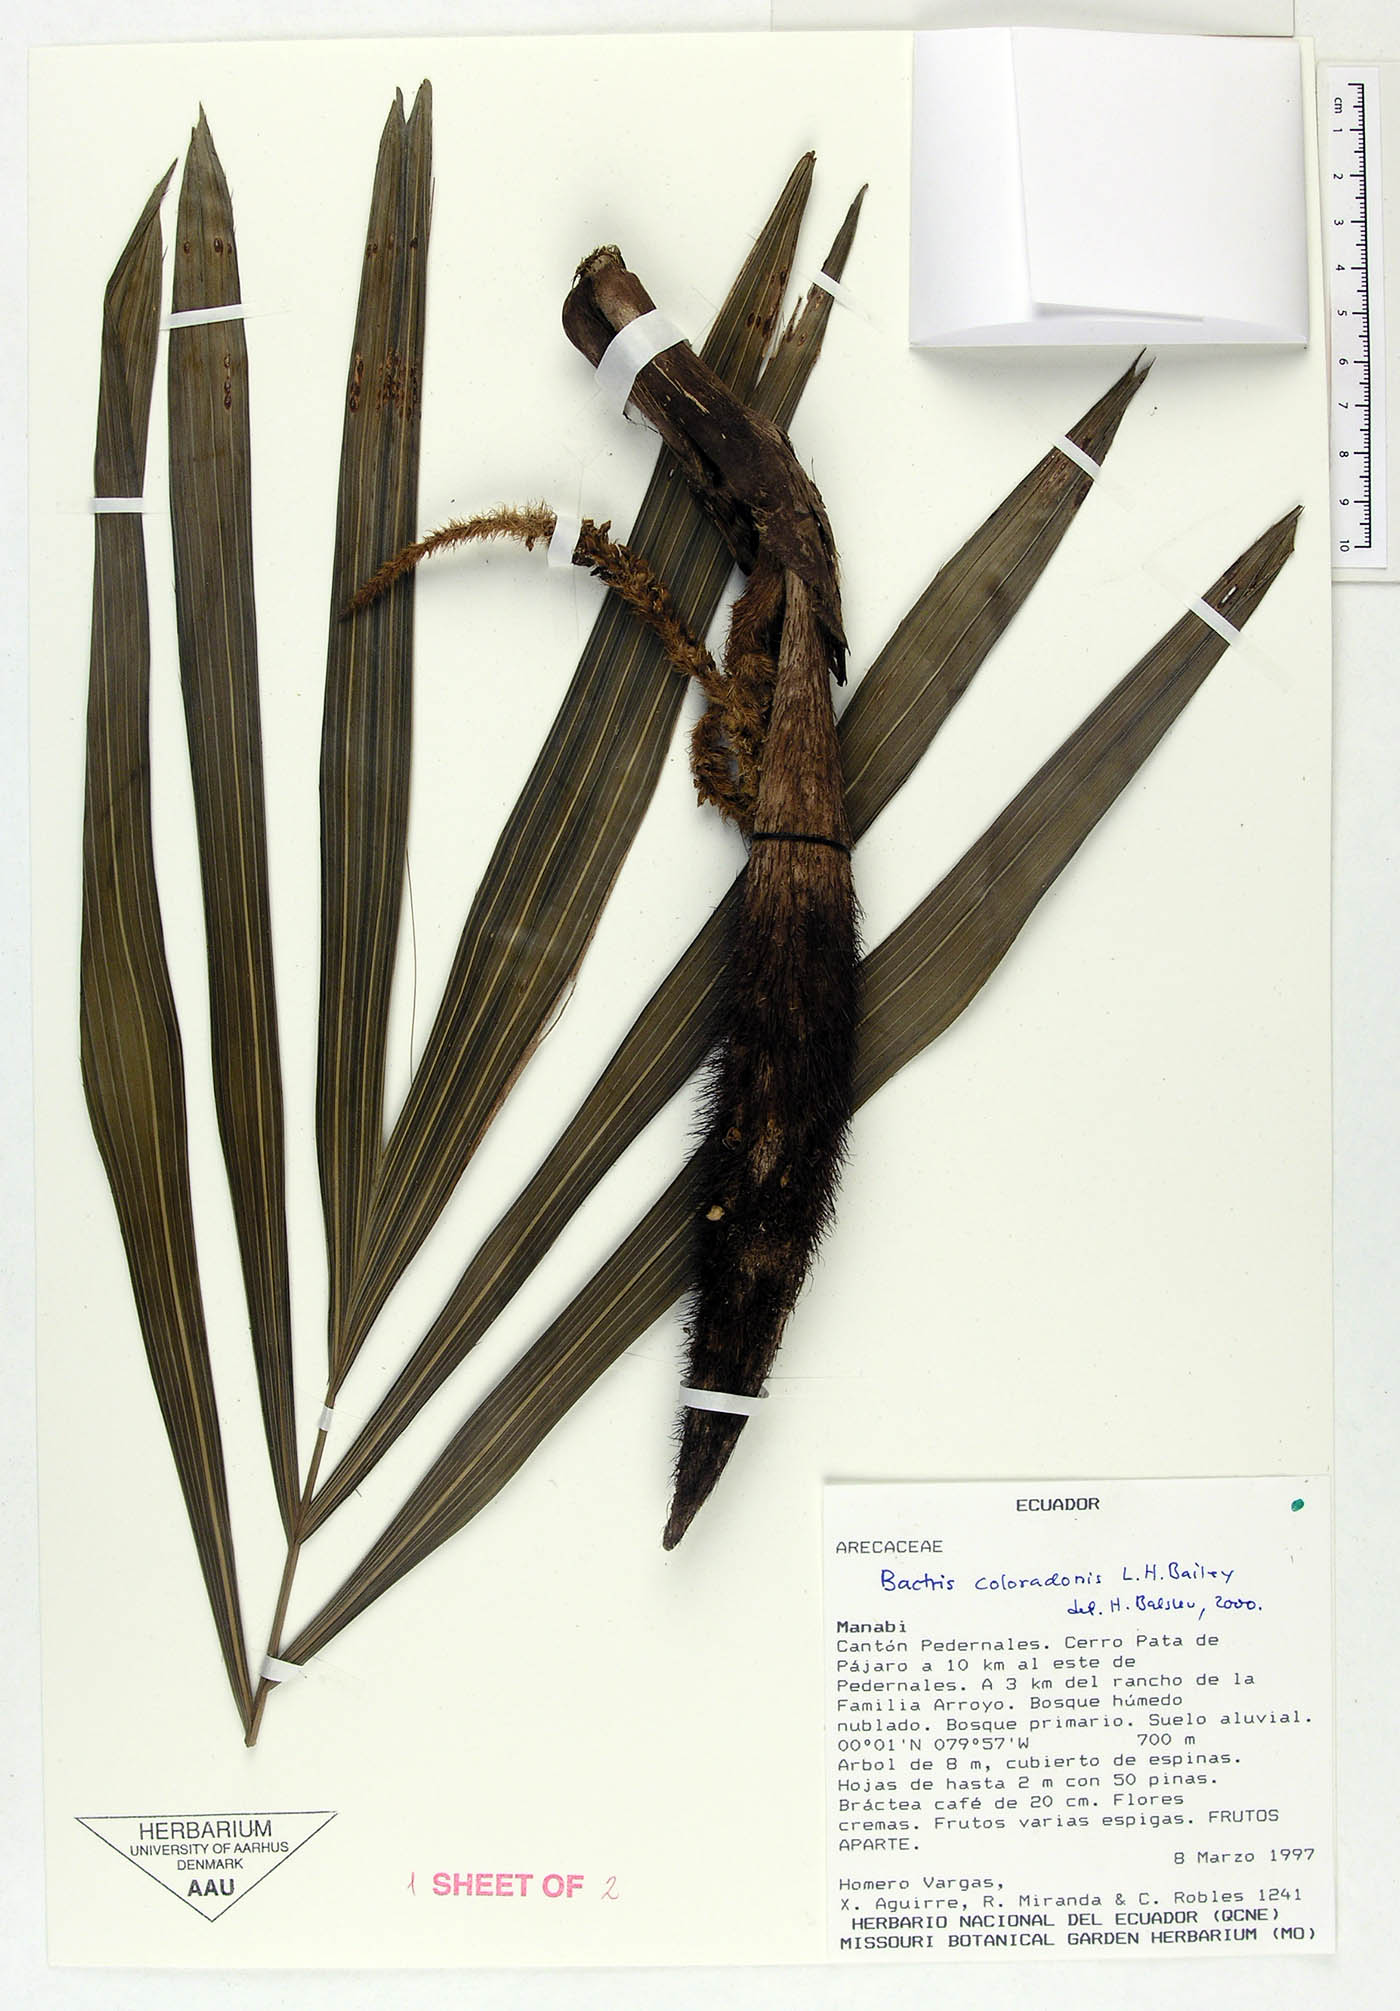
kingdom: Plantae
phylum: Tracheophyta
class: Liliopsida
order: Arecales
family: Arecaceae
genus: Bactris
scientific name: Bactris coloradonis
